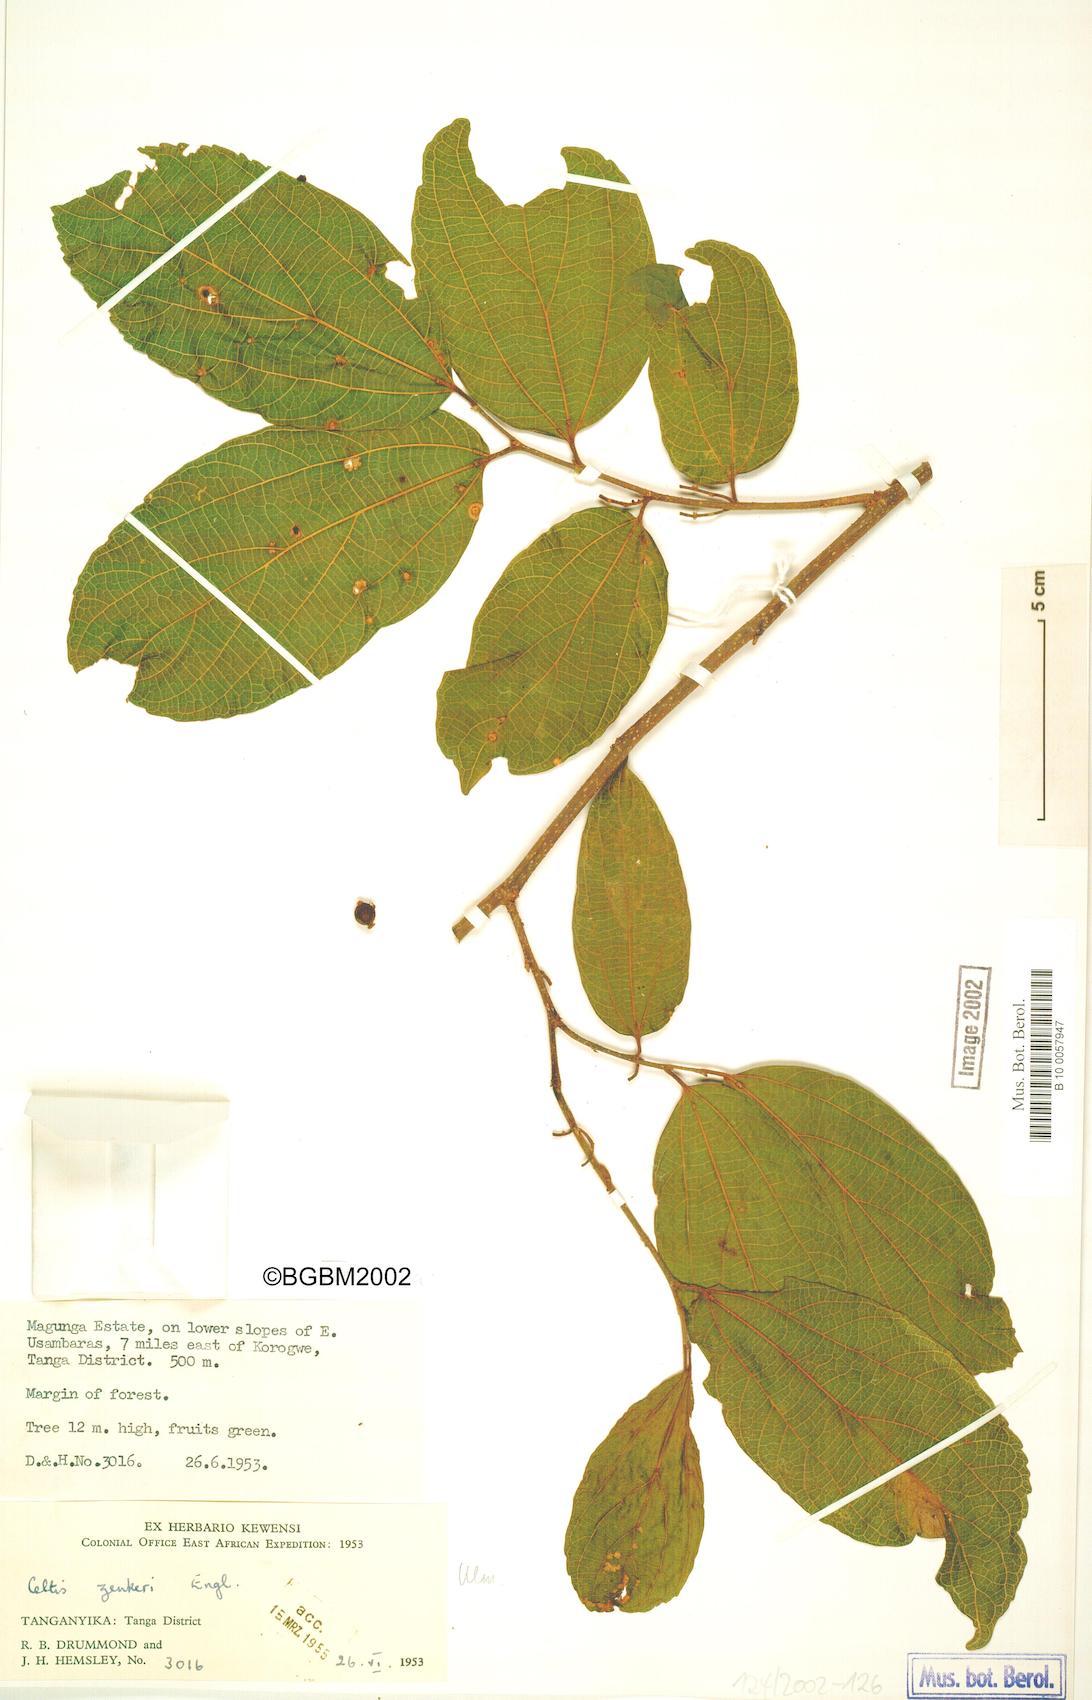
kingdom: Plantae
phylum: Tracheophyta
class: Magnoliopsida
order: Rosales
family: Cannabaceae
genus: Celtis
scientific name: Celtis zenkeri
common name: African celtis
